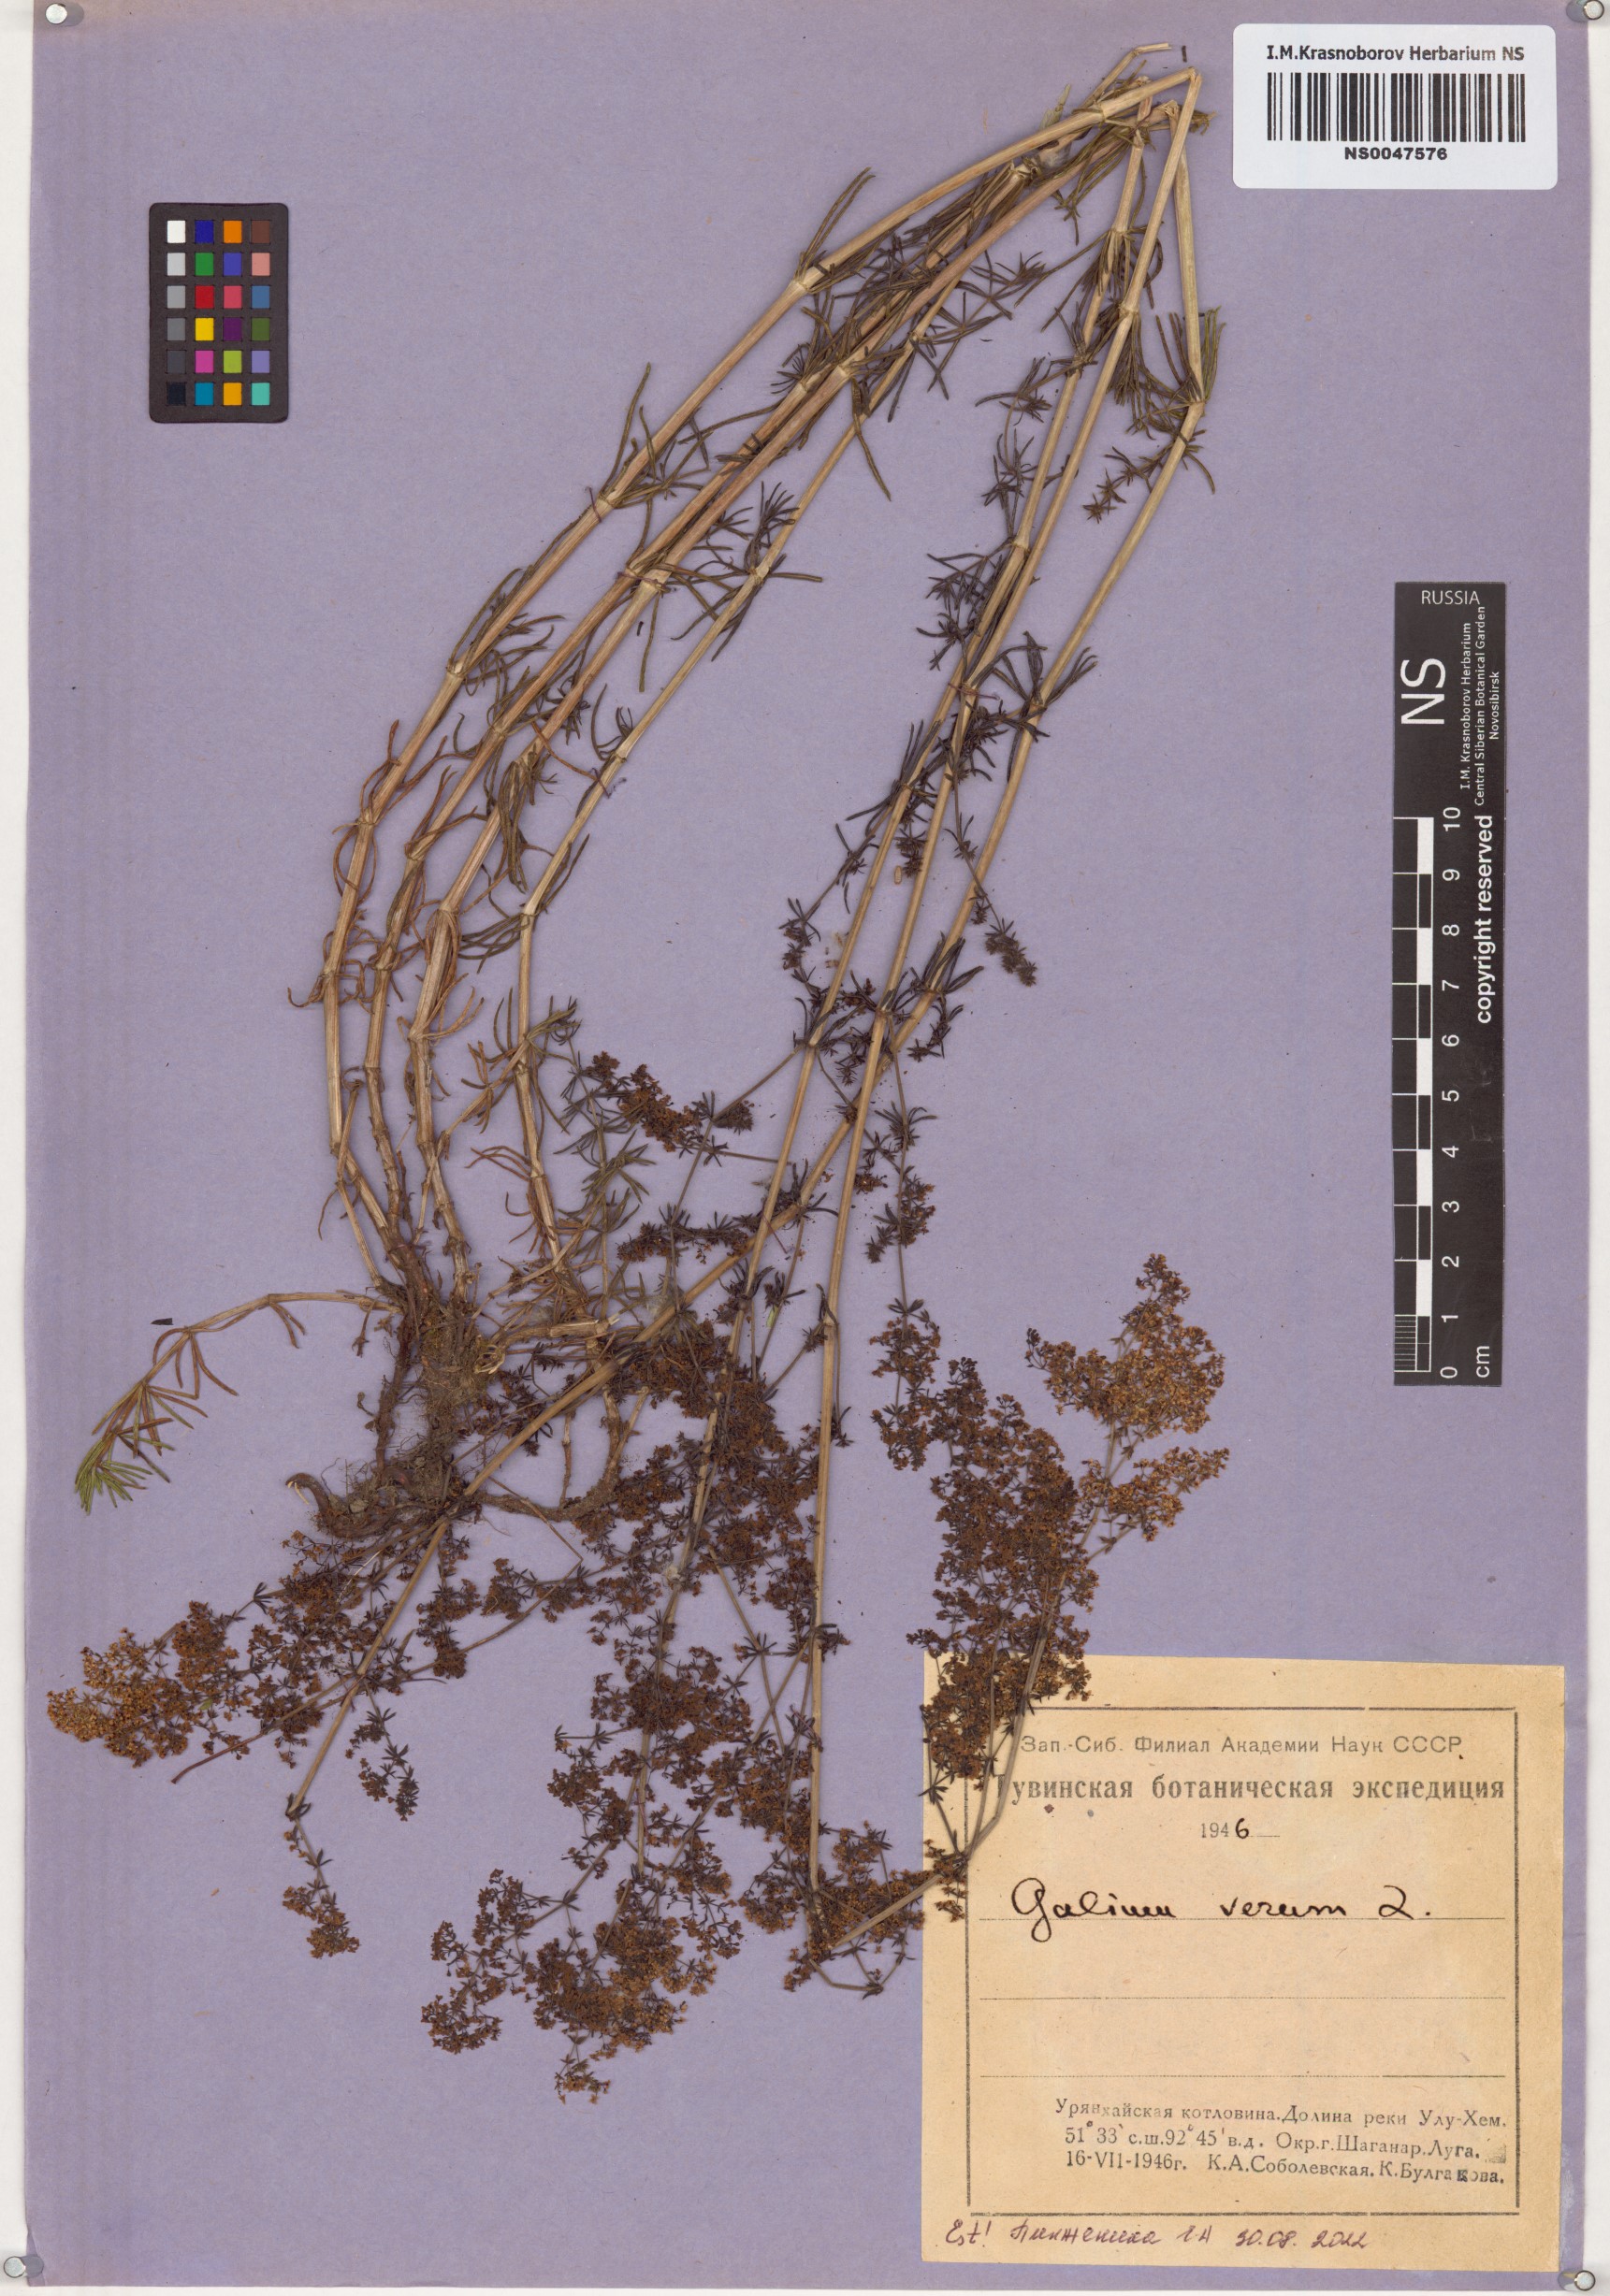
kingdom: Plantae
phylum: Tracheophyta
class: Magnoliopsida
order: Gentianales
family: Rubiaceae
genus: Galium
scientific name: Galium verum
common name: Lady's bedstraw
